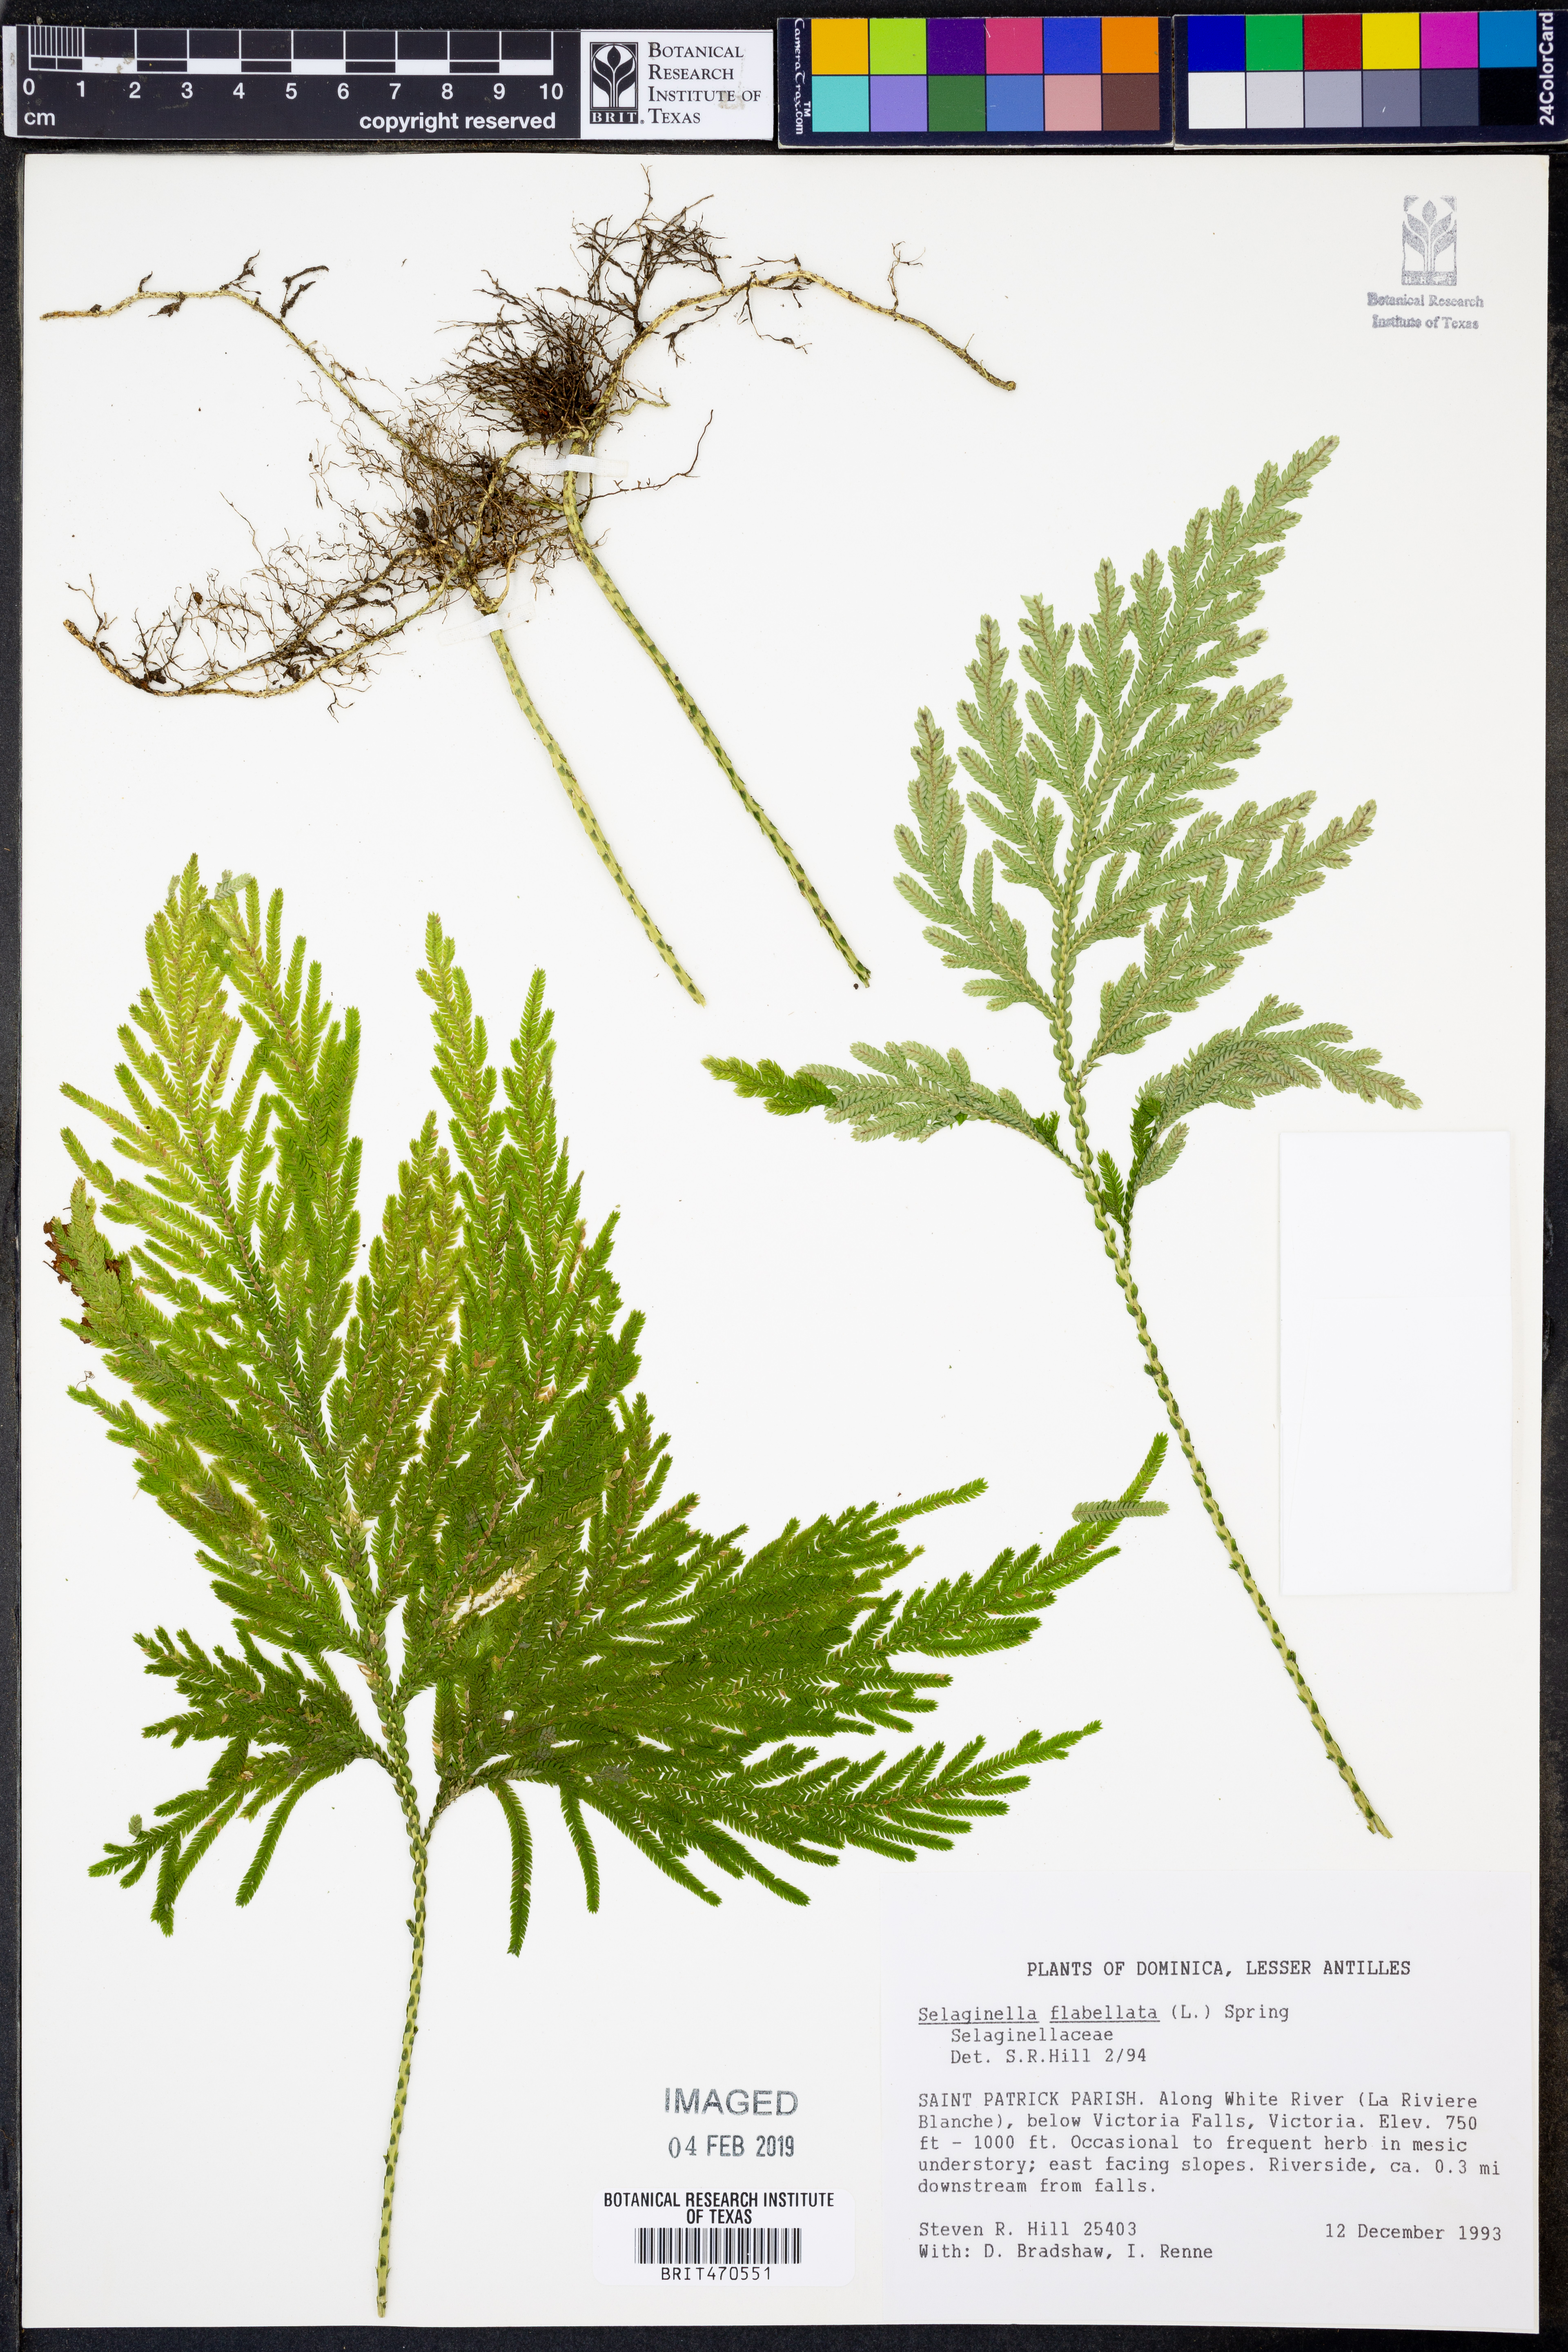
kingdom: Plantae
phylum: Tracheophyta
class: Lycopodiopsida
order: Selaginellales
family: Selaginellaceae
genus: Selaginella
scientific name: Selaginella flabellata
